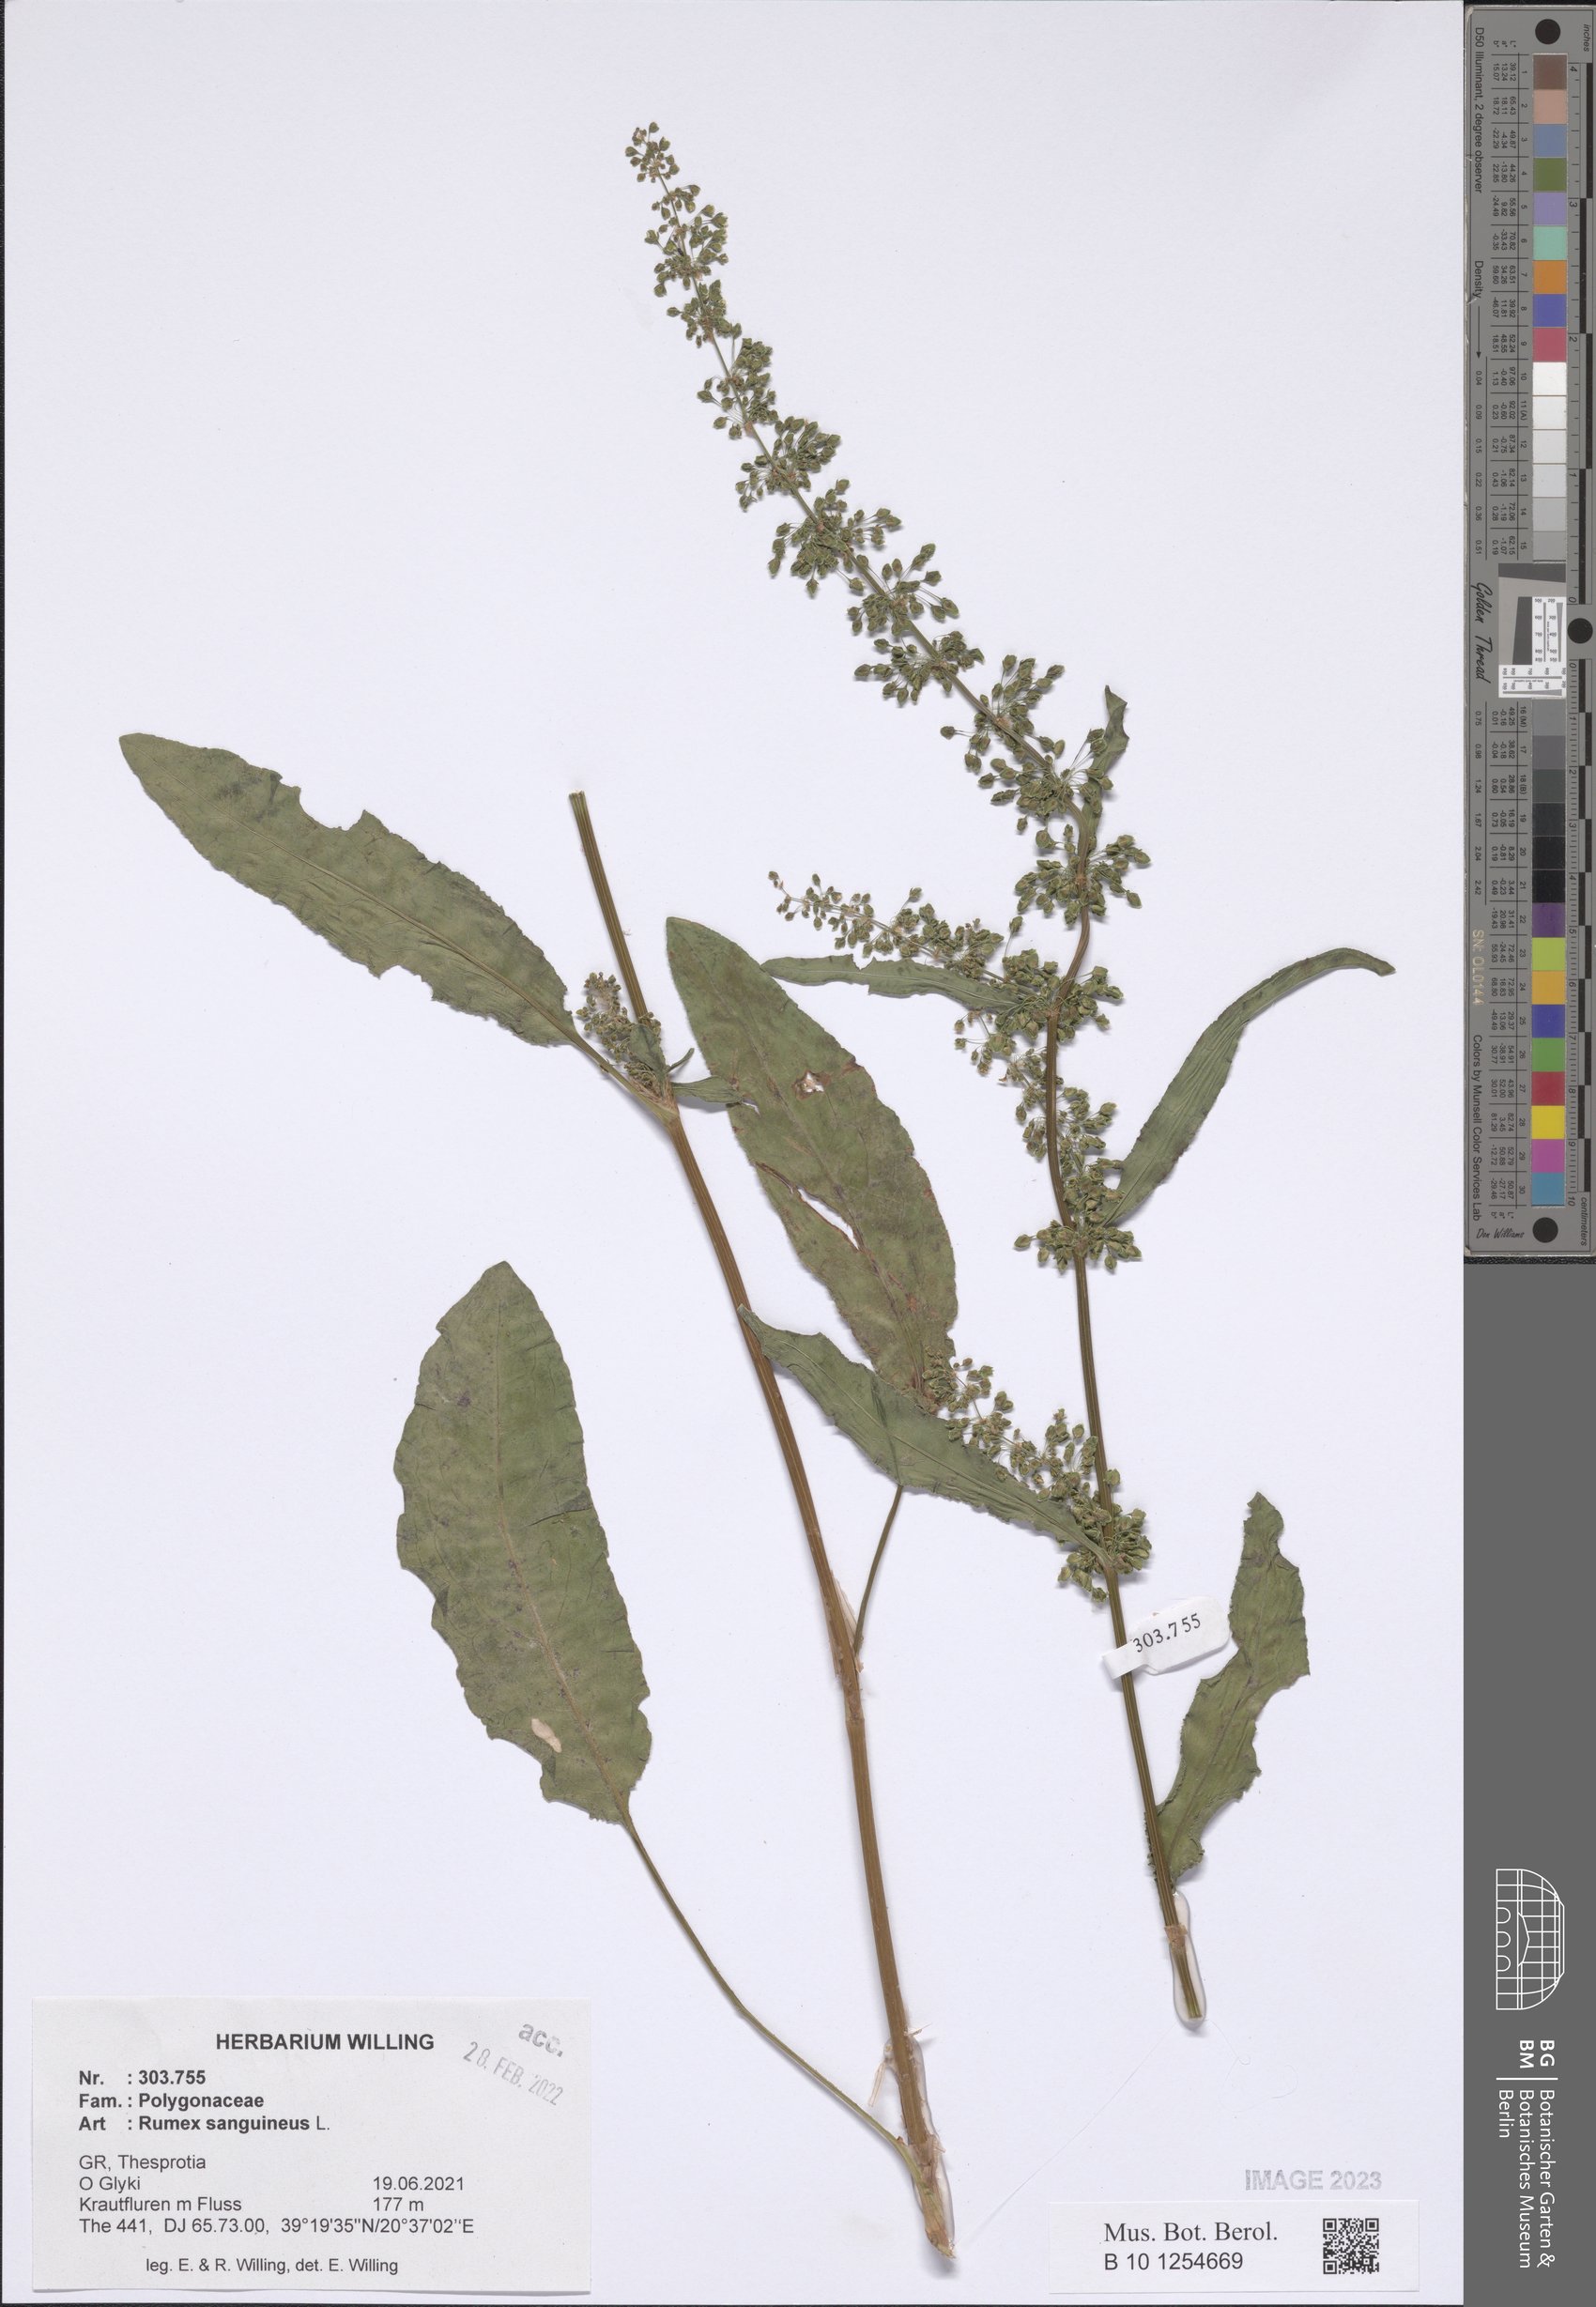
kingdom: Plantae
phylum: Tracheophyta
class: Magnoliopsida
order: Caryophyllales
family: Polygonaceae
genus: Rumex
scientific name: Rumex sanguineus
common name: Wood dock
